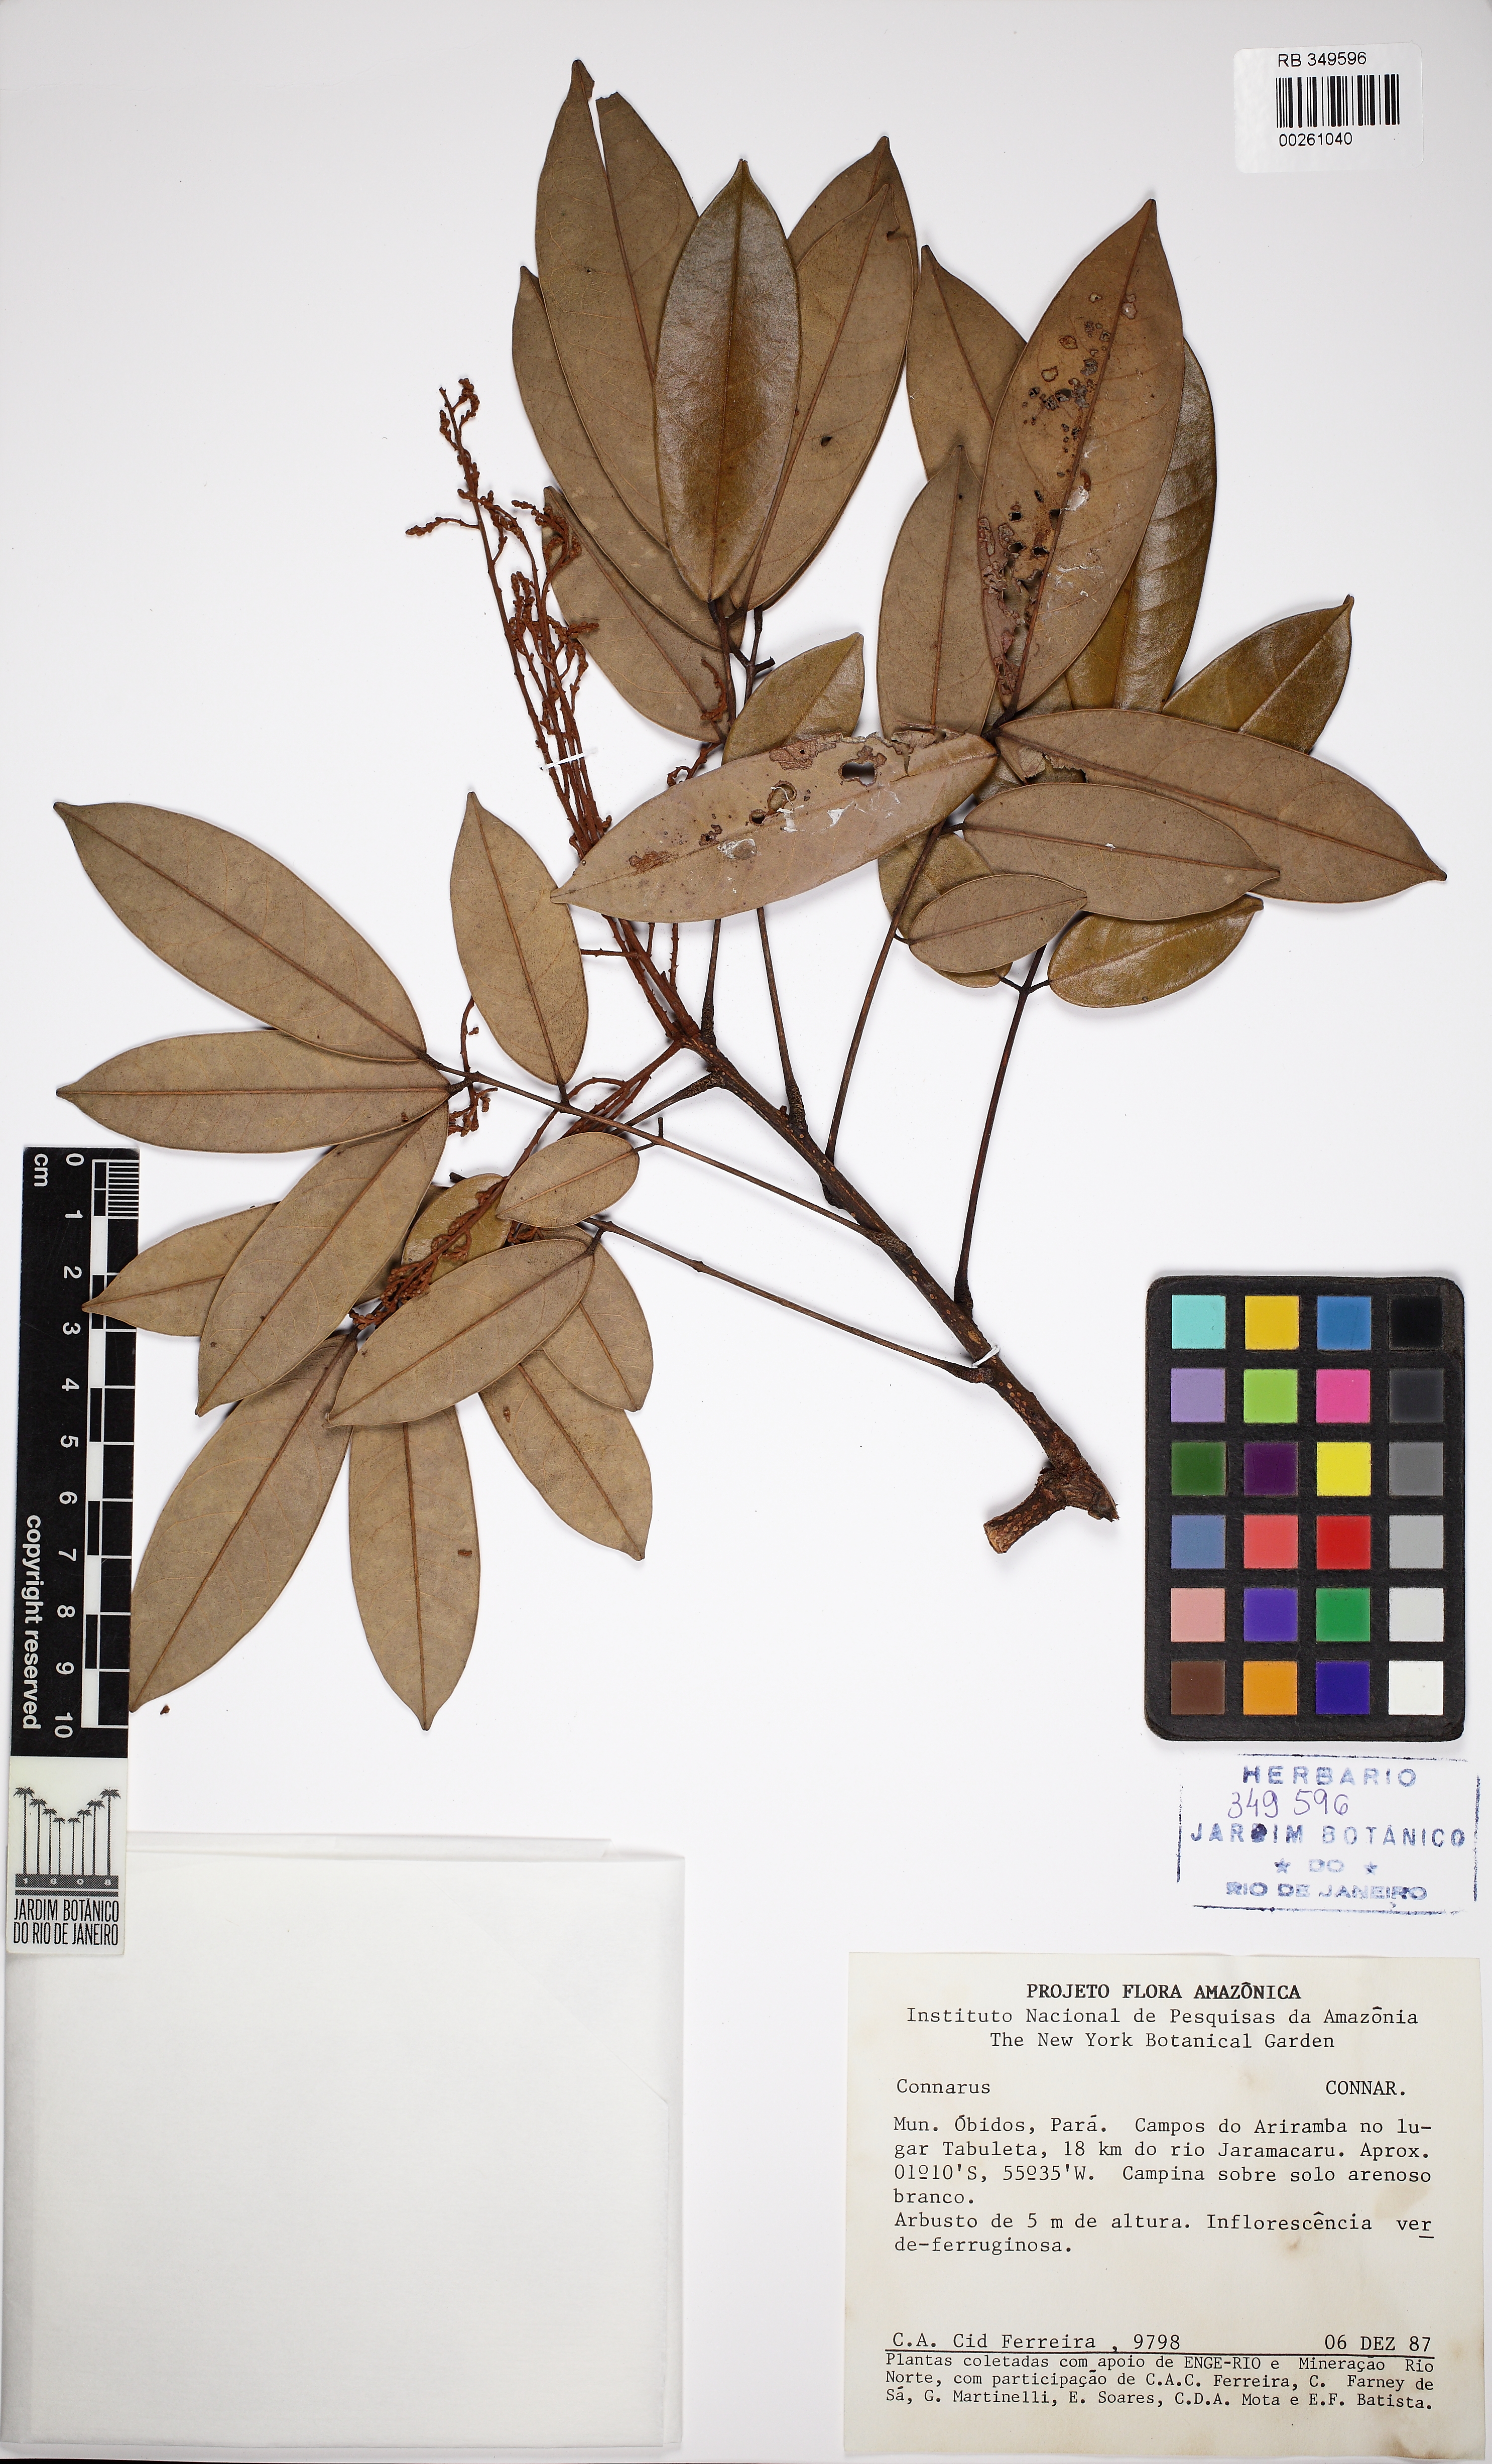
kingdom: Plantae
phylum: Tracheophyta
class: Magnoliopsida
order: Oxalidales
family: Connaraceae
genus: Connarus
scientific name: Connarus perrottetii
